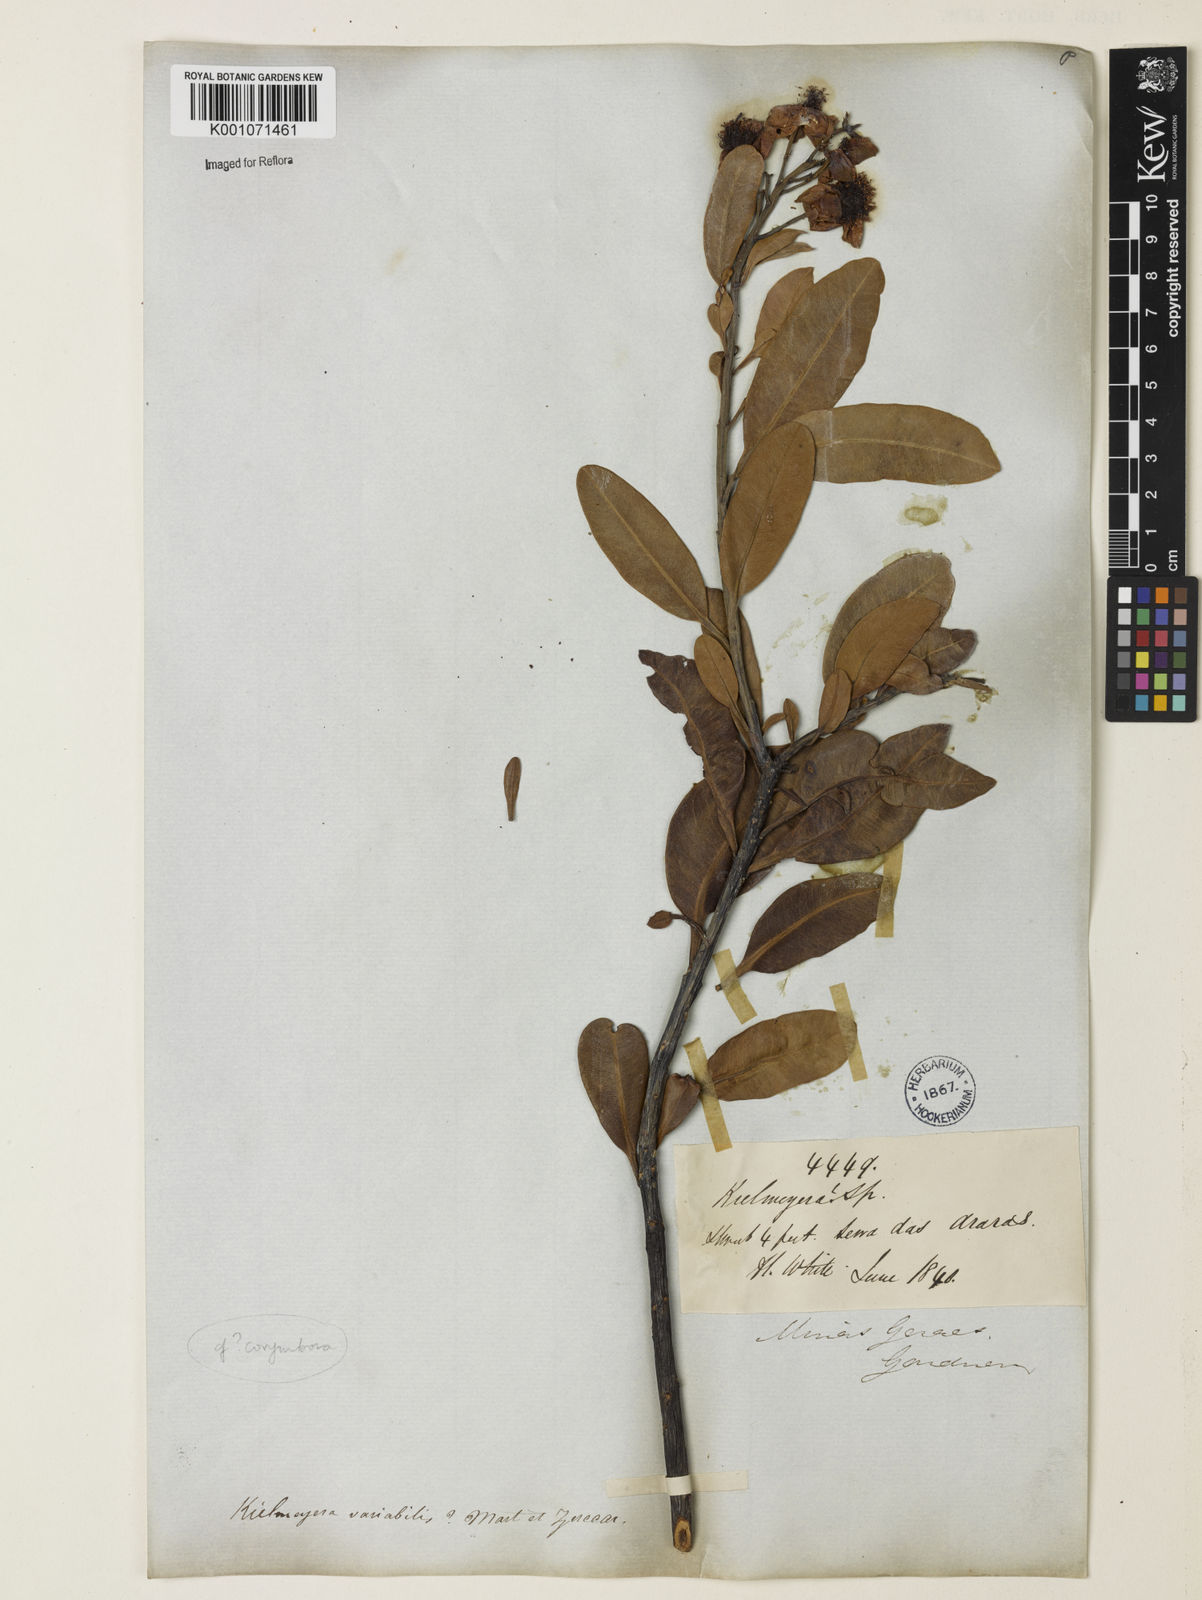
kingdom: Plantae
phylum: Tracheophyta
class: Magnoliopsida
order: Malpighiales
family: Calophyllaceae
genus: Kielmeyera
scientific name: Kielmeyera corymbosa
